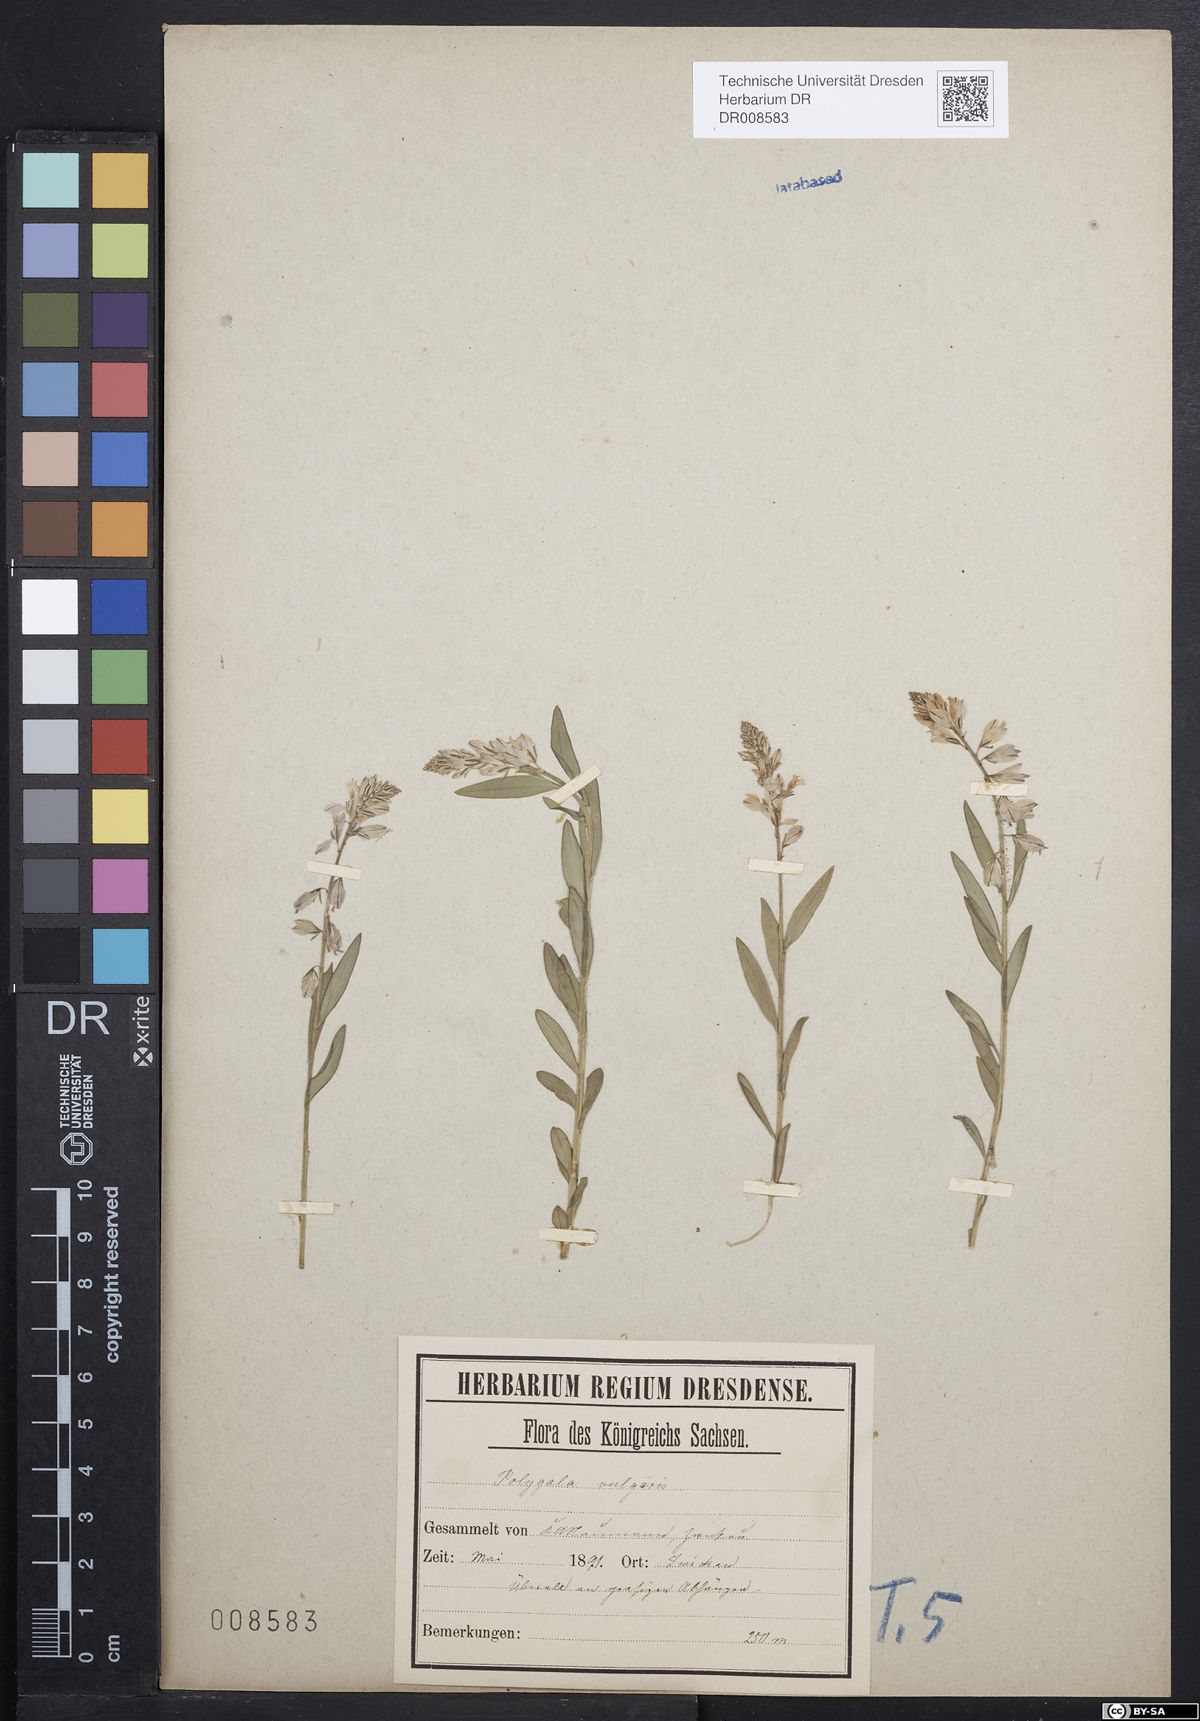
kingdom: Plantae
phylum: Tracheophyta
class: Magnoliopsida
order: Fabales
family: Polygalaceae
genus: Polygala
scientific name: Polygala vulgaris
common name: Common milkwort
